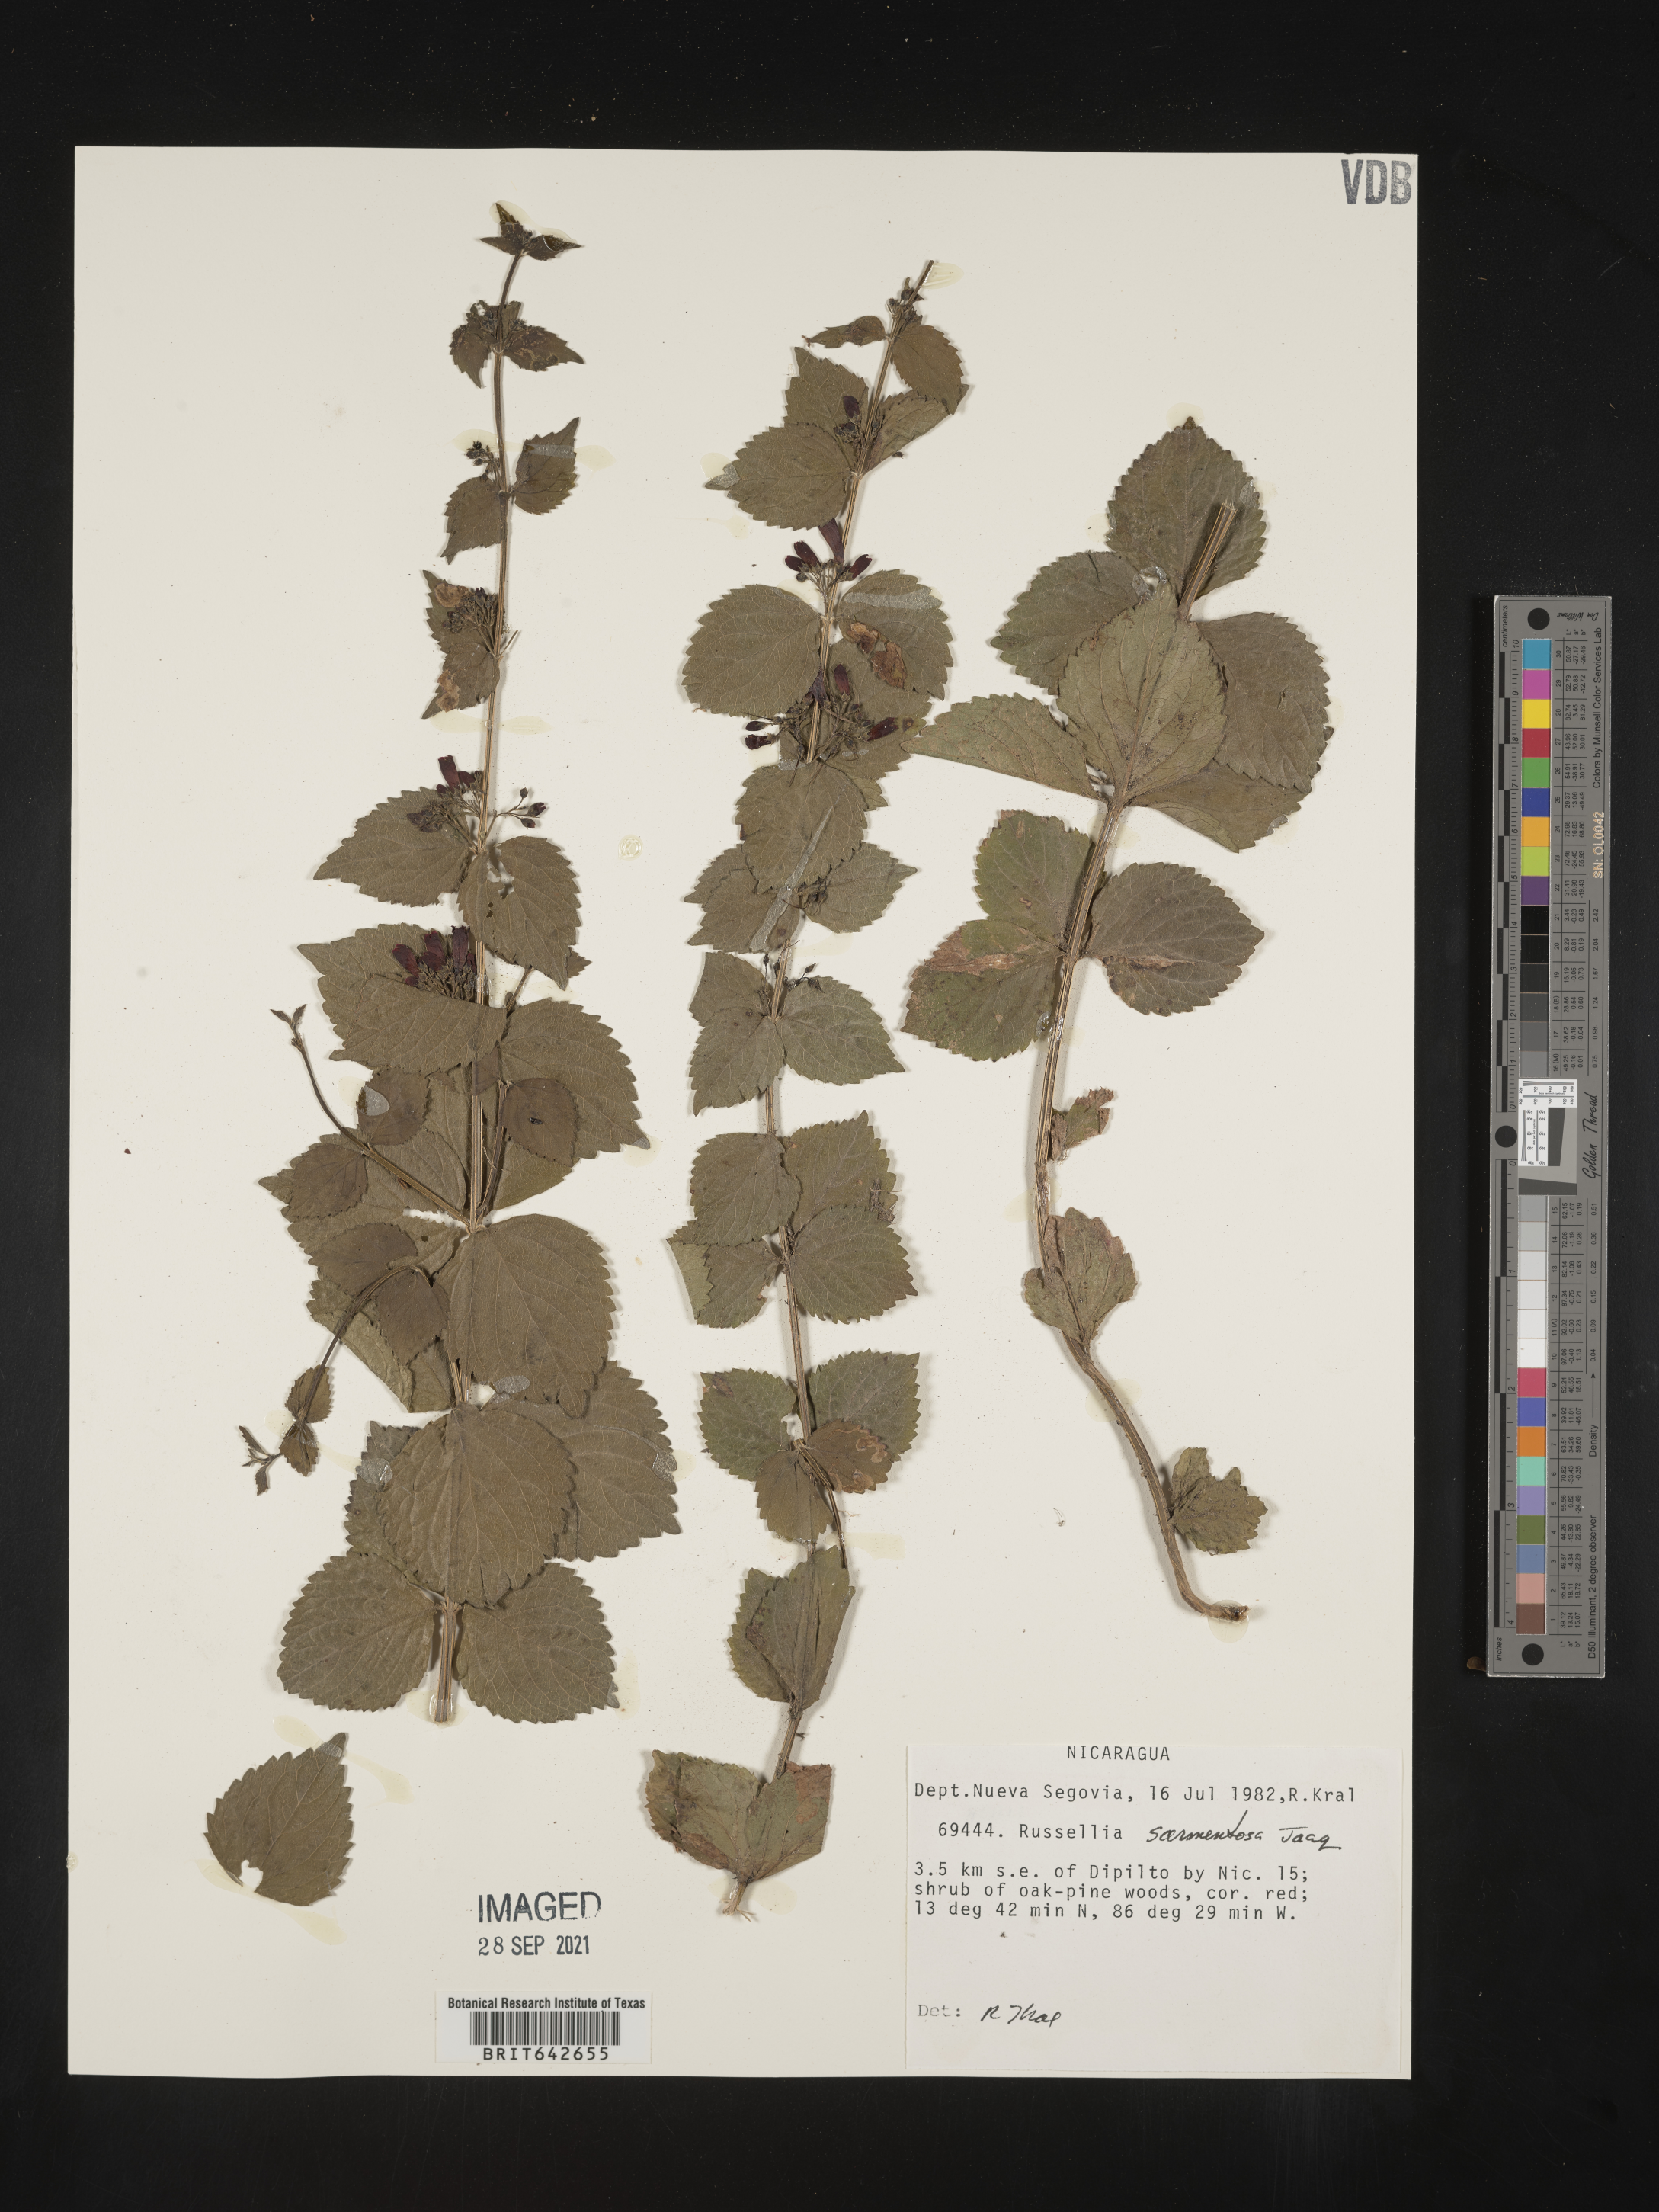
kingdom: Plantae
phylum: Tracheophyta
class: Magnoliopsida
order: Lamiales
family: Plantaginaceae
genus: Russelia
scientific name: Russelia
